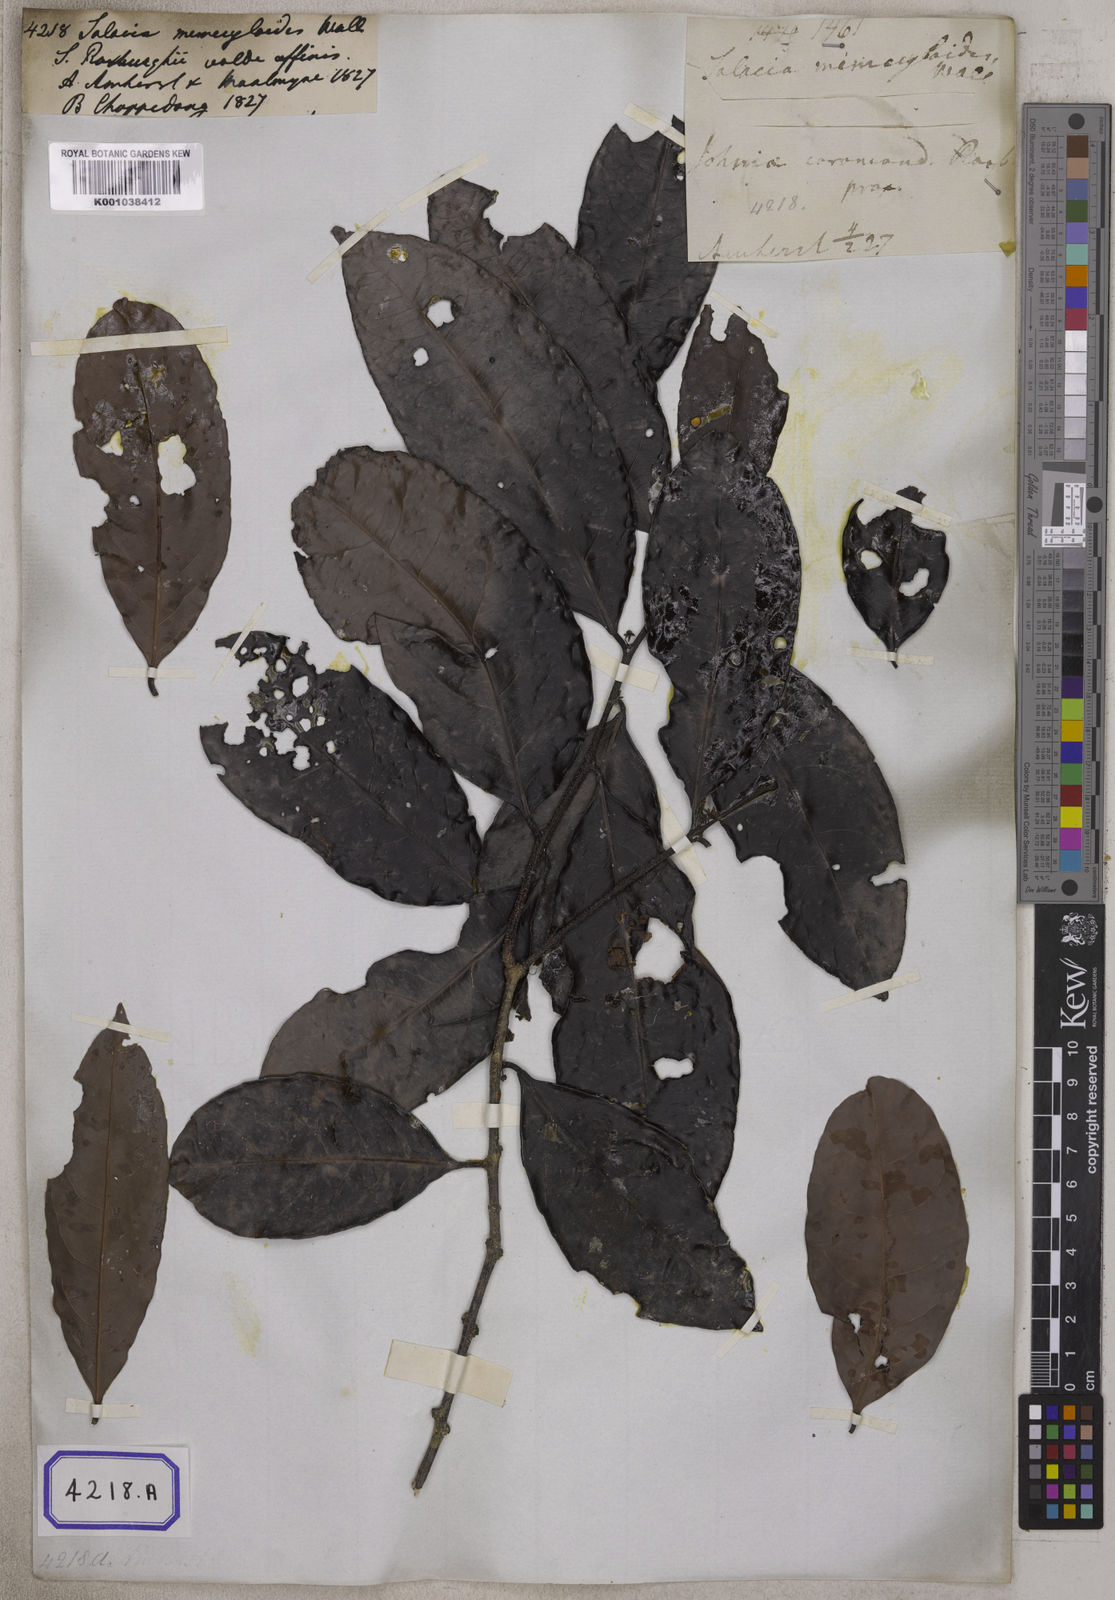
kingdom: Plantae
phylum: Tracheophyta
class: Magnoliopsida
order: Celastrales
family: Celastraceae
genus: Salacia
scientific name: Salacia verrucosa
